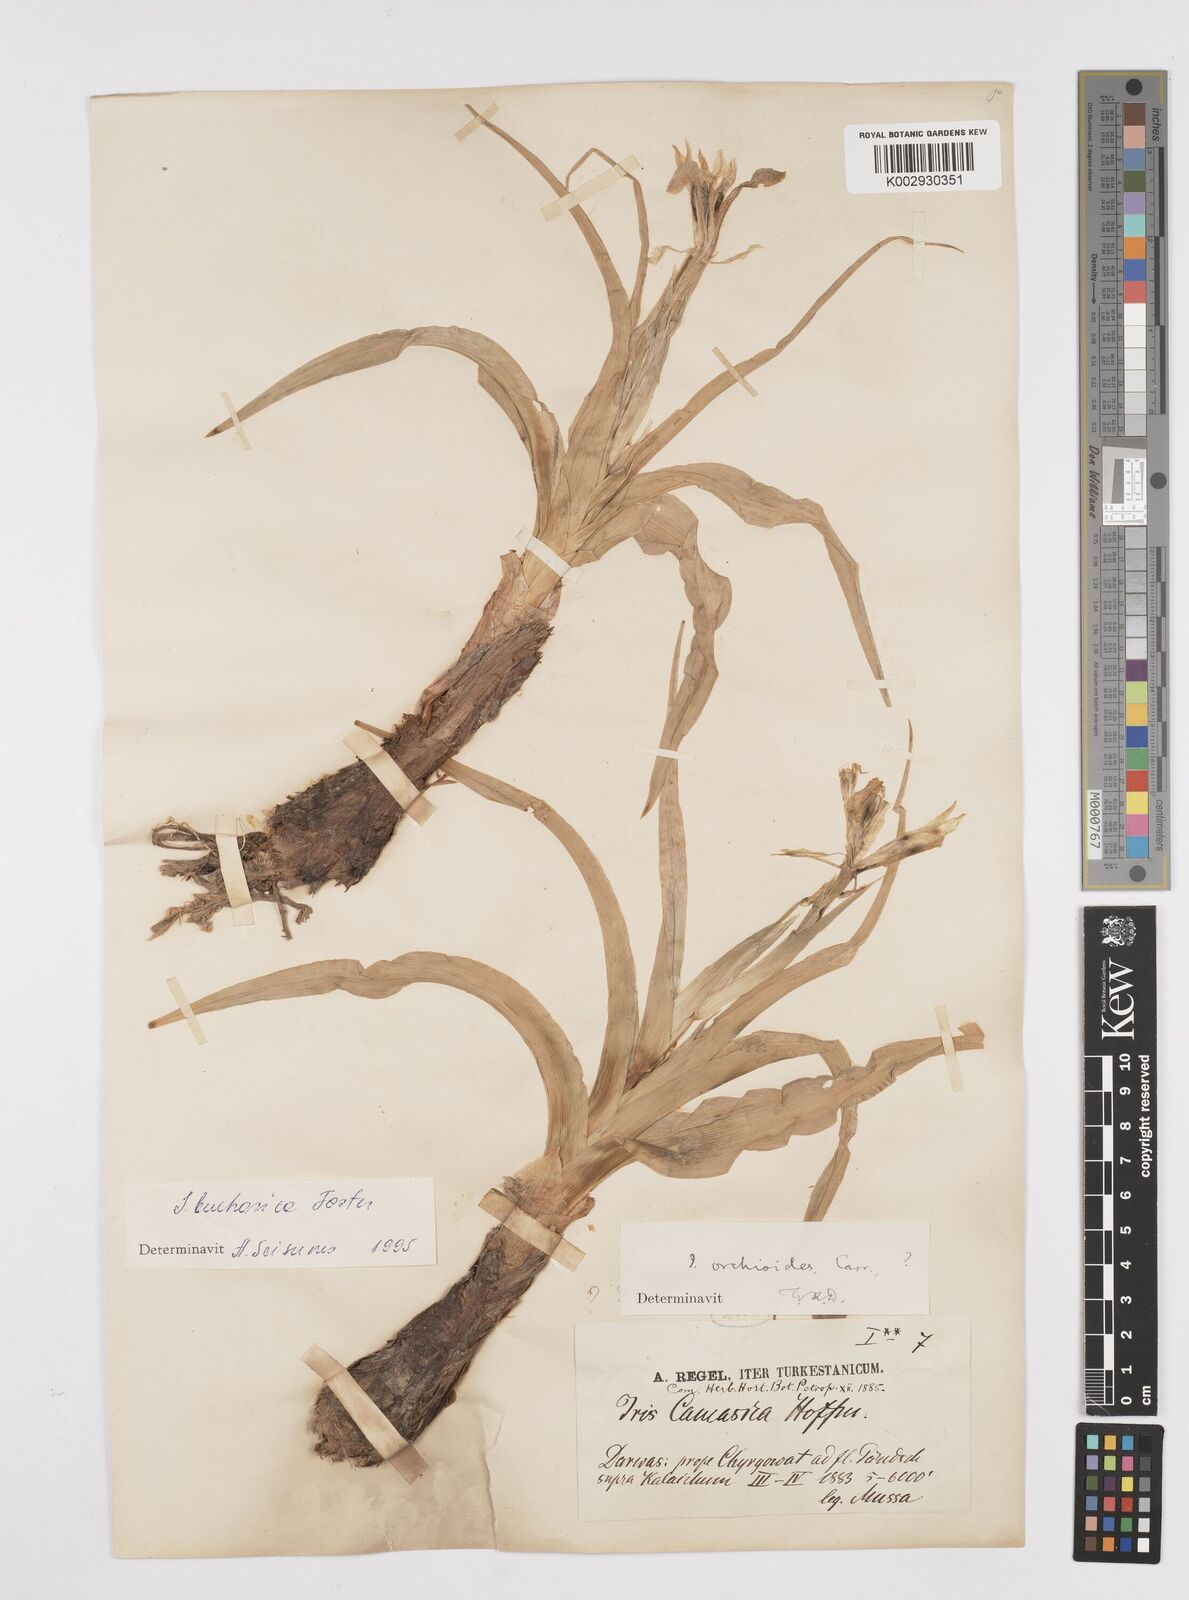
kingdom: Plantae
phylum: Tracheophyta
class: Liliopsida
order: Asparagales
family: Iridaceae
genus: Iris
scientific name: Iris orchioides
